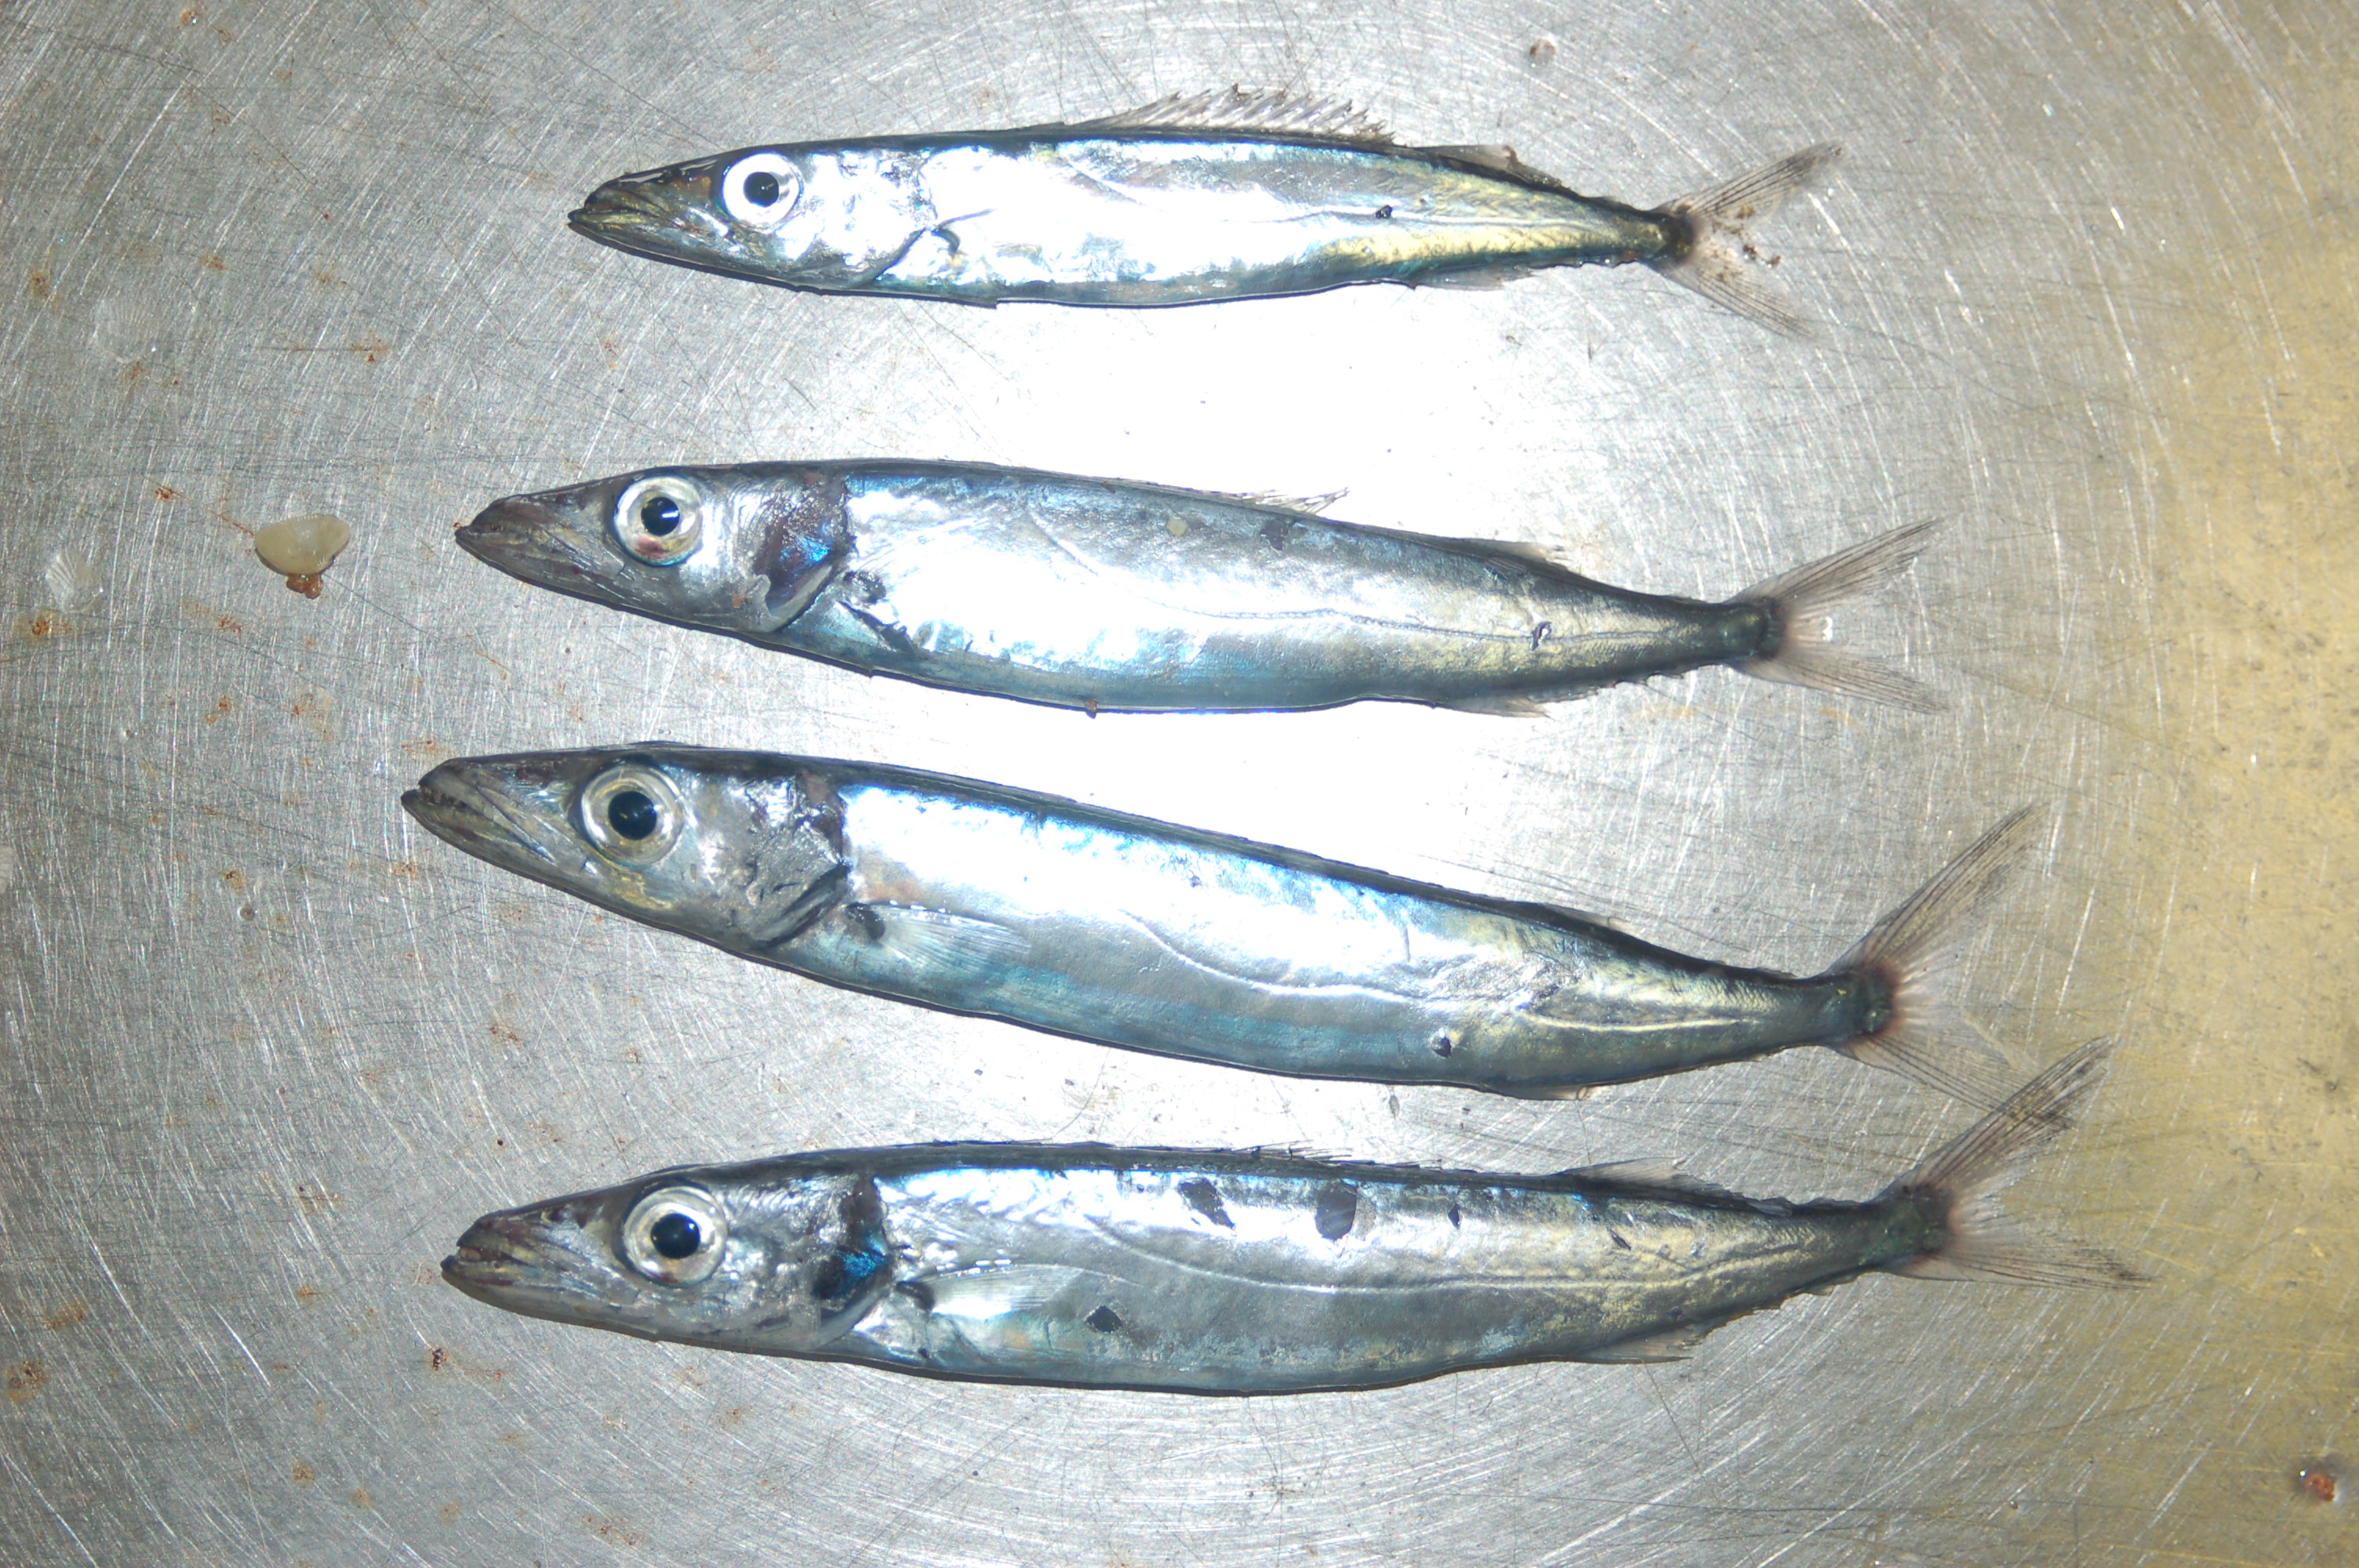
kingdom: Animalia
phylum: Chordata
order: Perciformes
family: Gempylidae
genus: Rexea
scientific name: Rexea prometheoides
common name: Royal escolar
